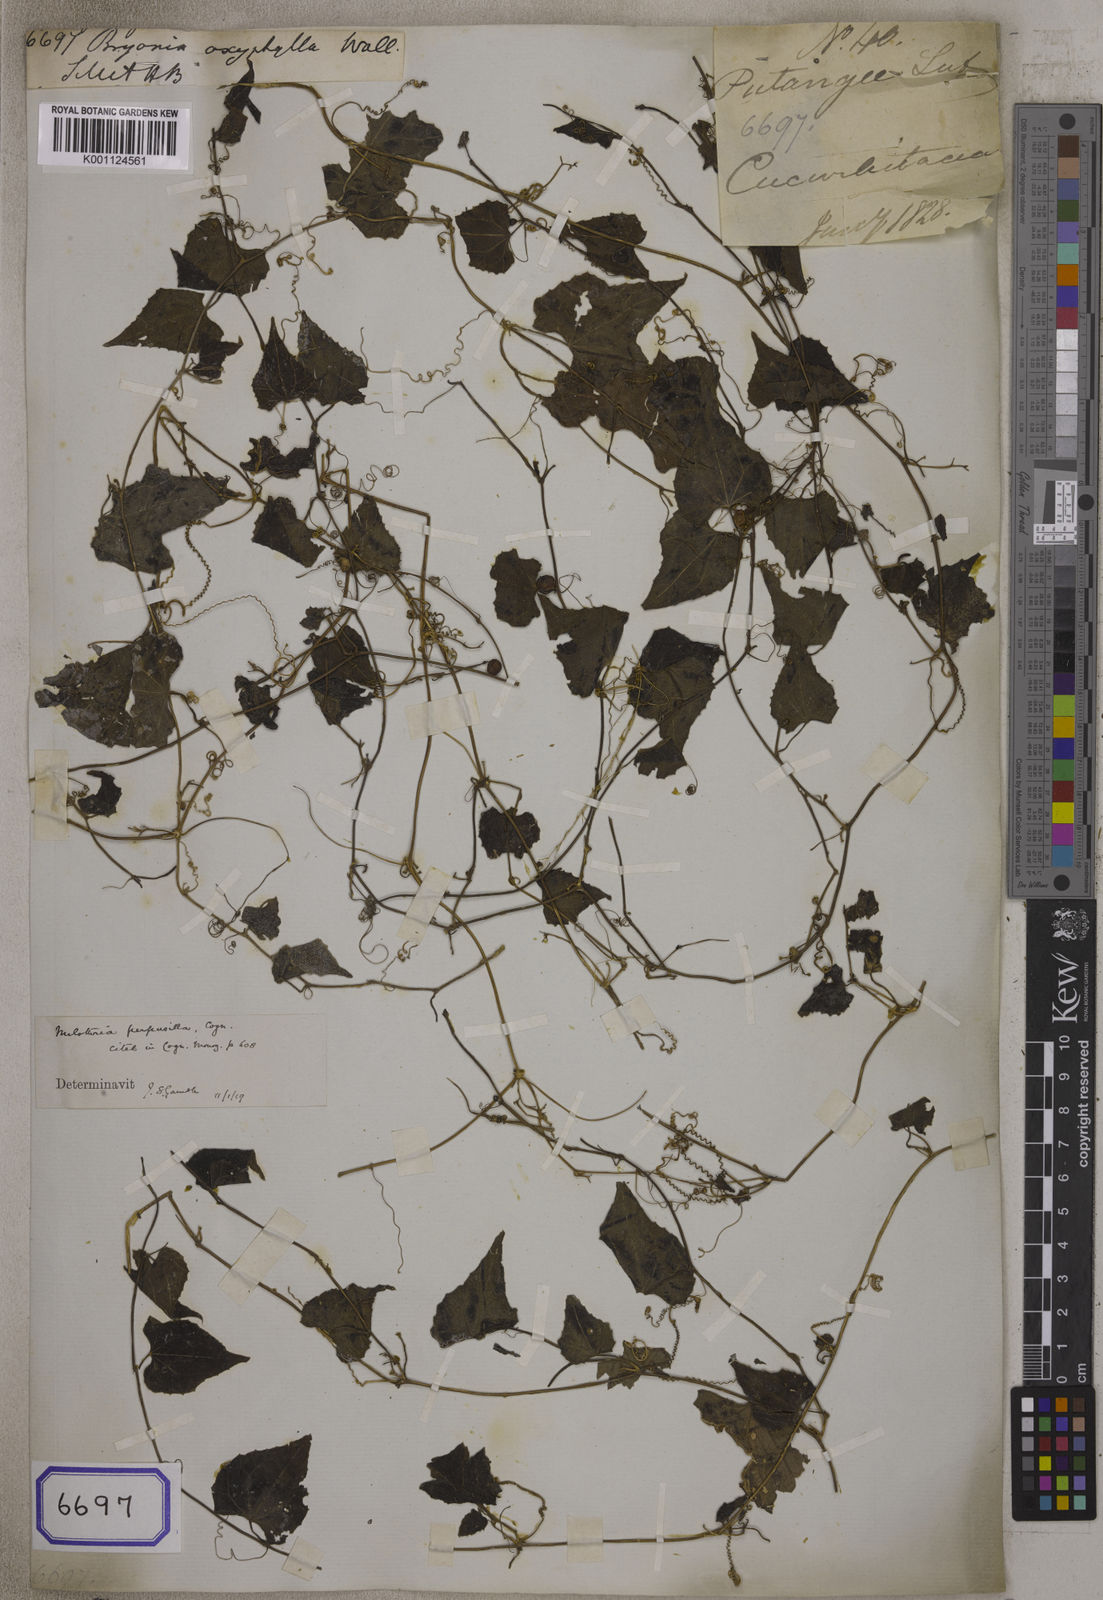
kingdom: Plantae
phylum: Tracheophyta
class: Magnoliopsida
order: Cucurbitales
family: Cucurbitaceae
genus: Zehneria
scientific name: Zehneria bodinieri
